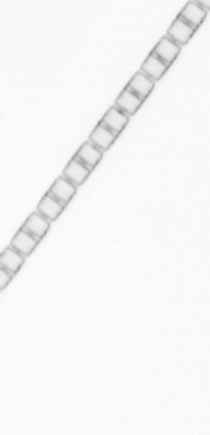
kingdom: Chromista
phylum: Ochrophyta
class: Bacillariophyceae
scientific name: Bacillariophyceae
